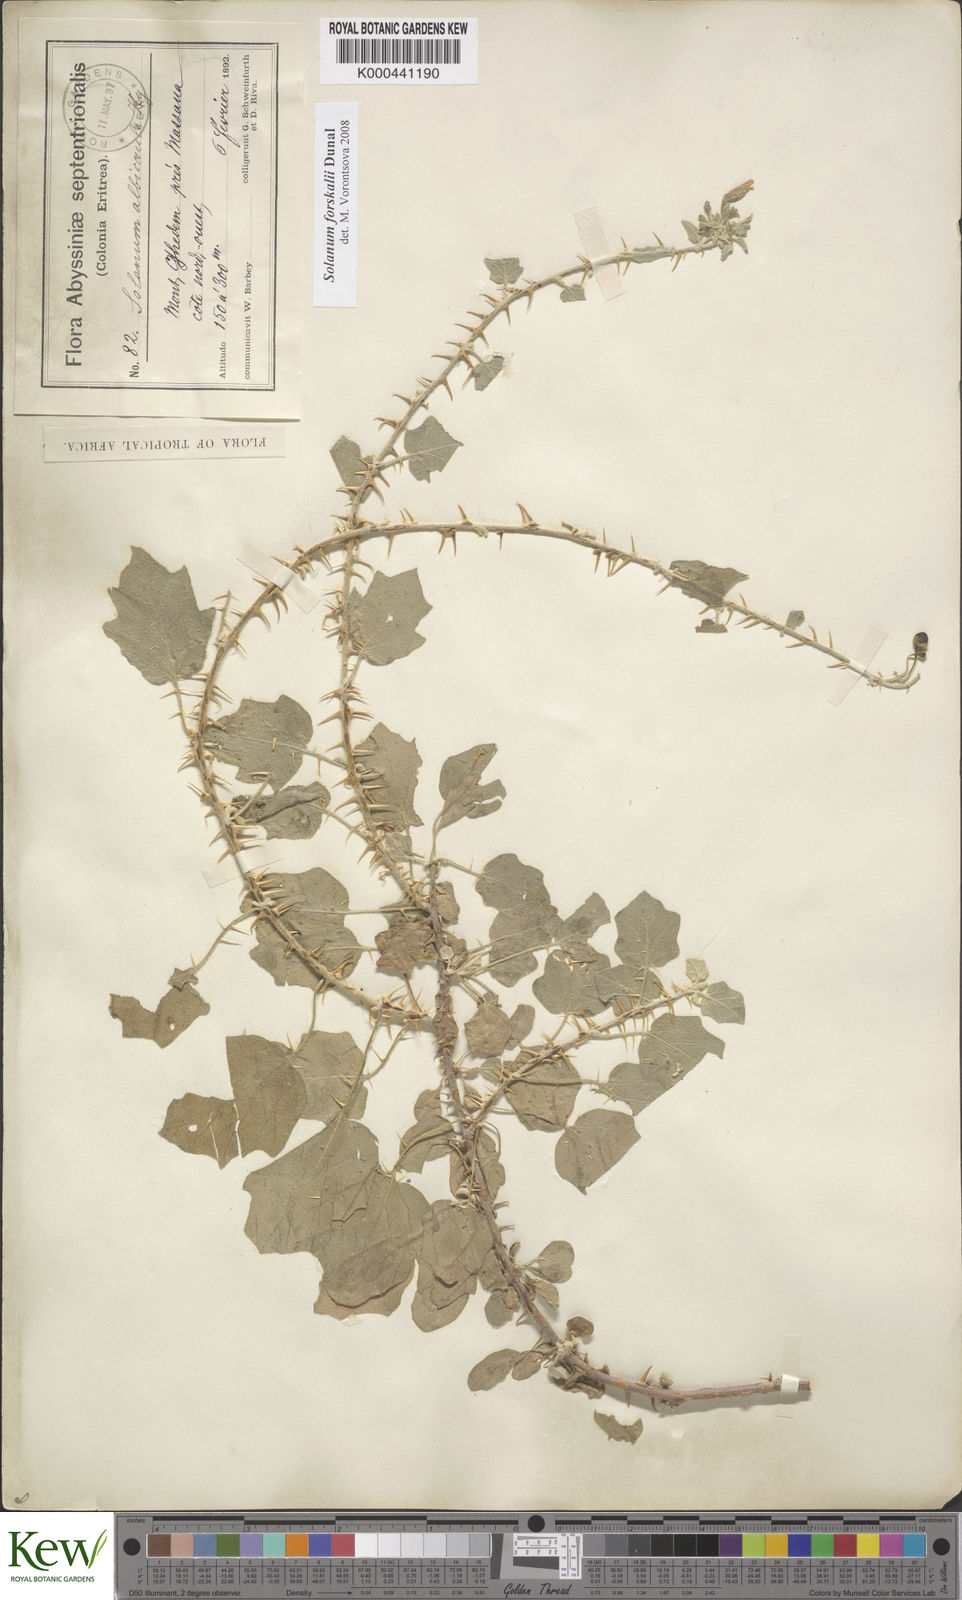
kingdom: Plantae
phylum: Tracheophyta
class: Magnoliopsida
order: Solanales
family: Solanaceae
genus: Solanum
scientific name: Solanum
